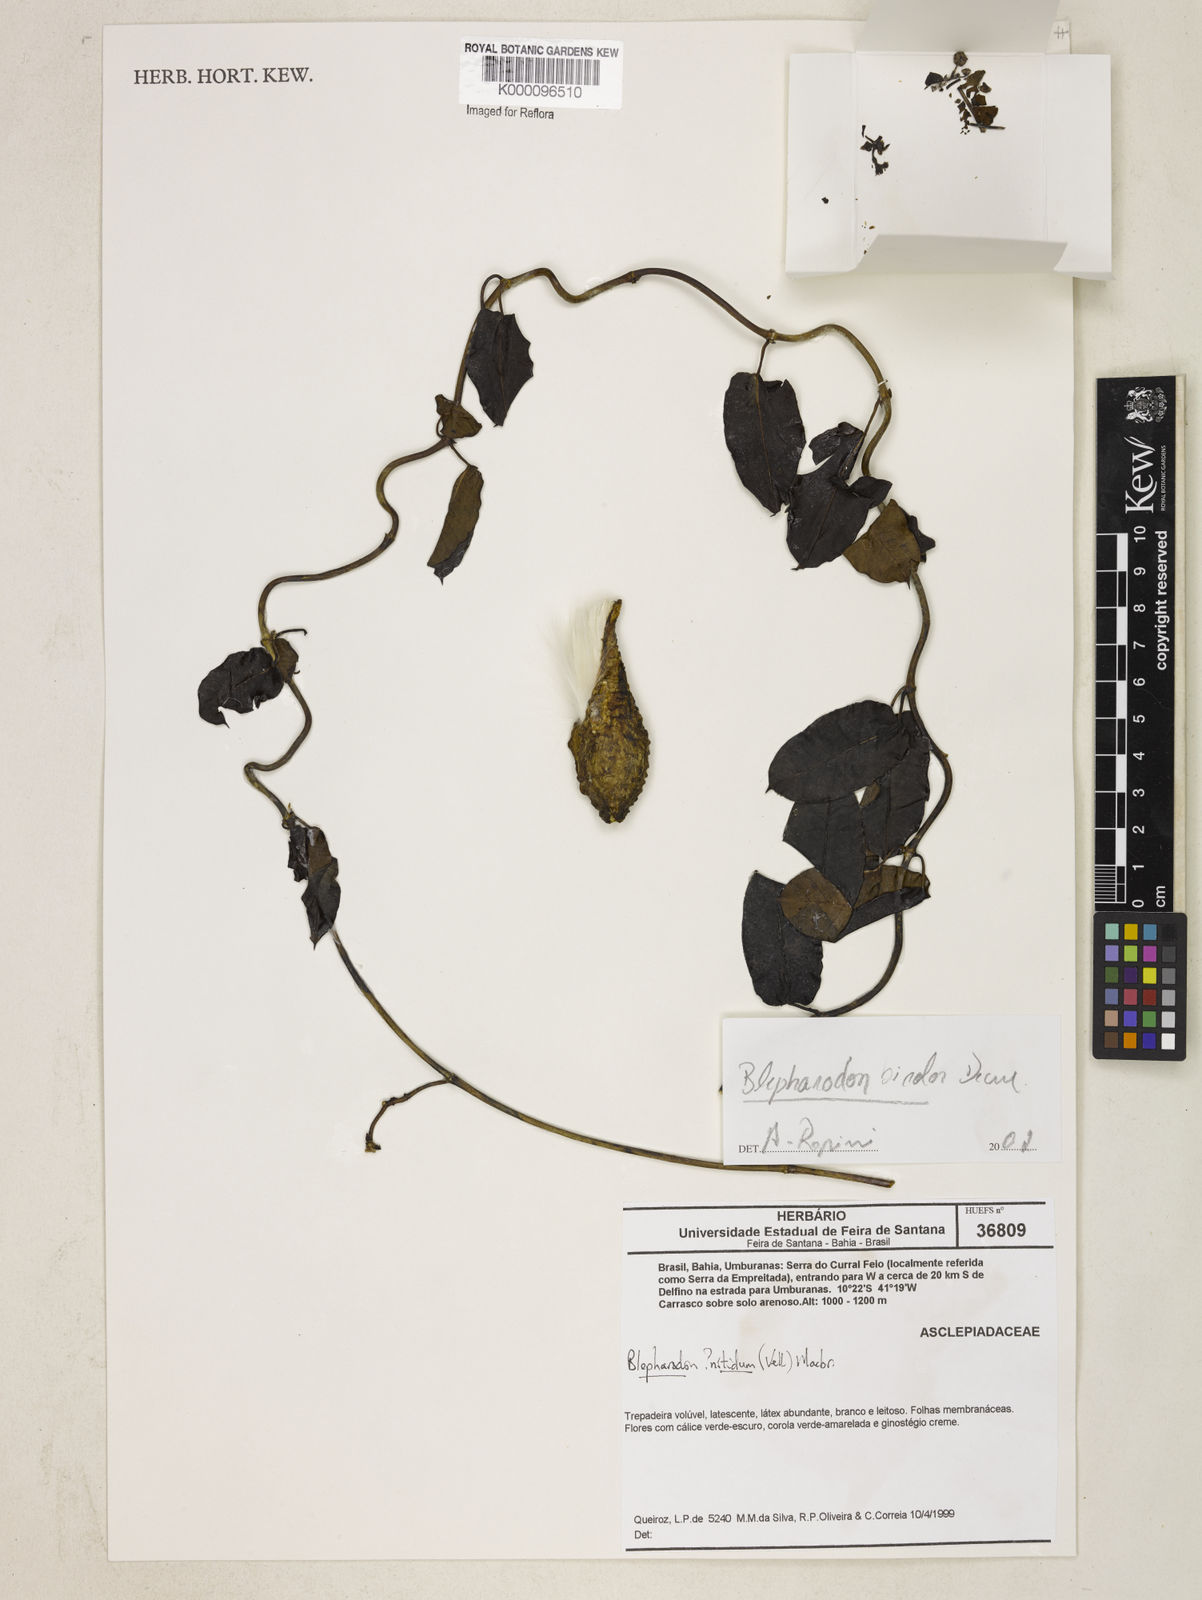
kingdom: Plantae
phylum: Tracheophyta
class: Magnoliopsida
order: Gentianales
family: Apocynaceae
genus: Blepharodon
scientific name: Blepharodon bicolor
